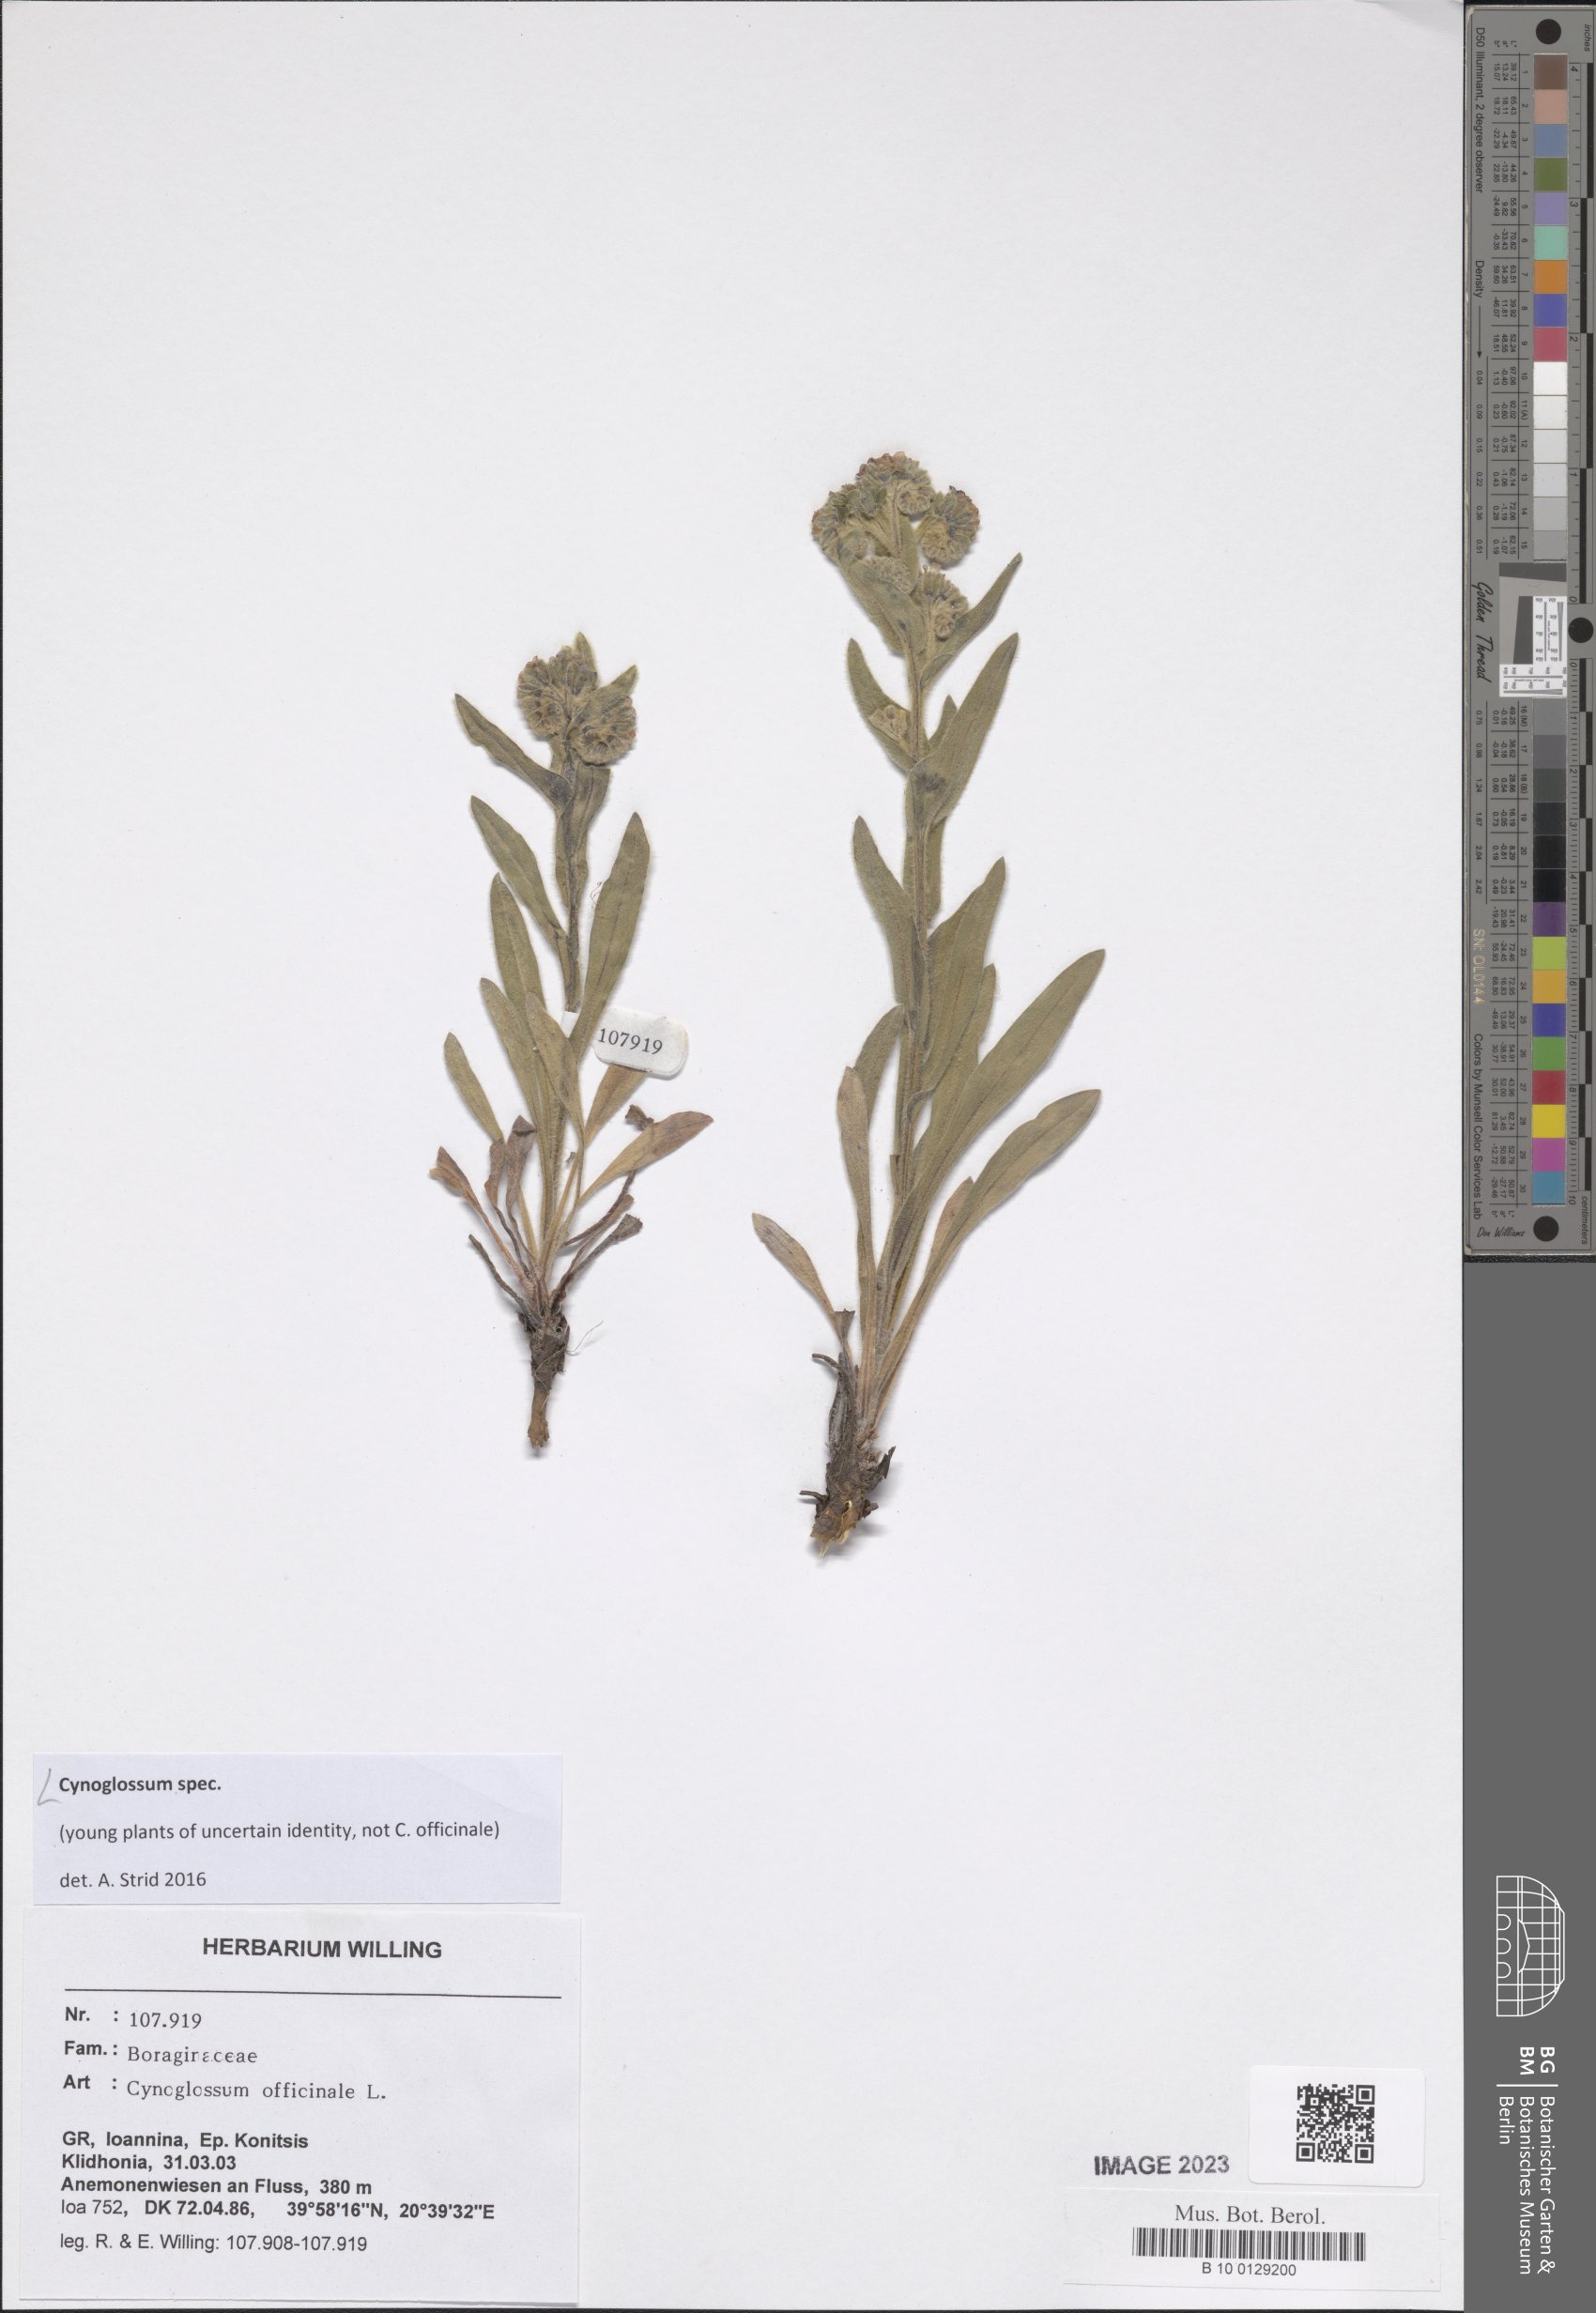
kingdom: Plantae
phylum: Tracheophyta
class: Magnoliopsida
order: Boraginales
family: Boraginaceae
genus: Cynoglossum
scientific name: Cynoglossum
